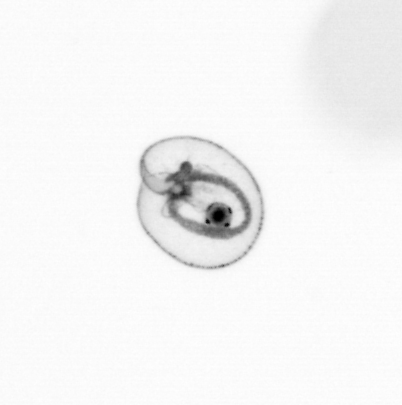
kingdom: Chromista
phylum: Myzozoa
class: Dinophyceae
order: Noctilucales
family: Noctilucaceae
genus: Noctiluca
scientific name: Noctiluca scintillans
